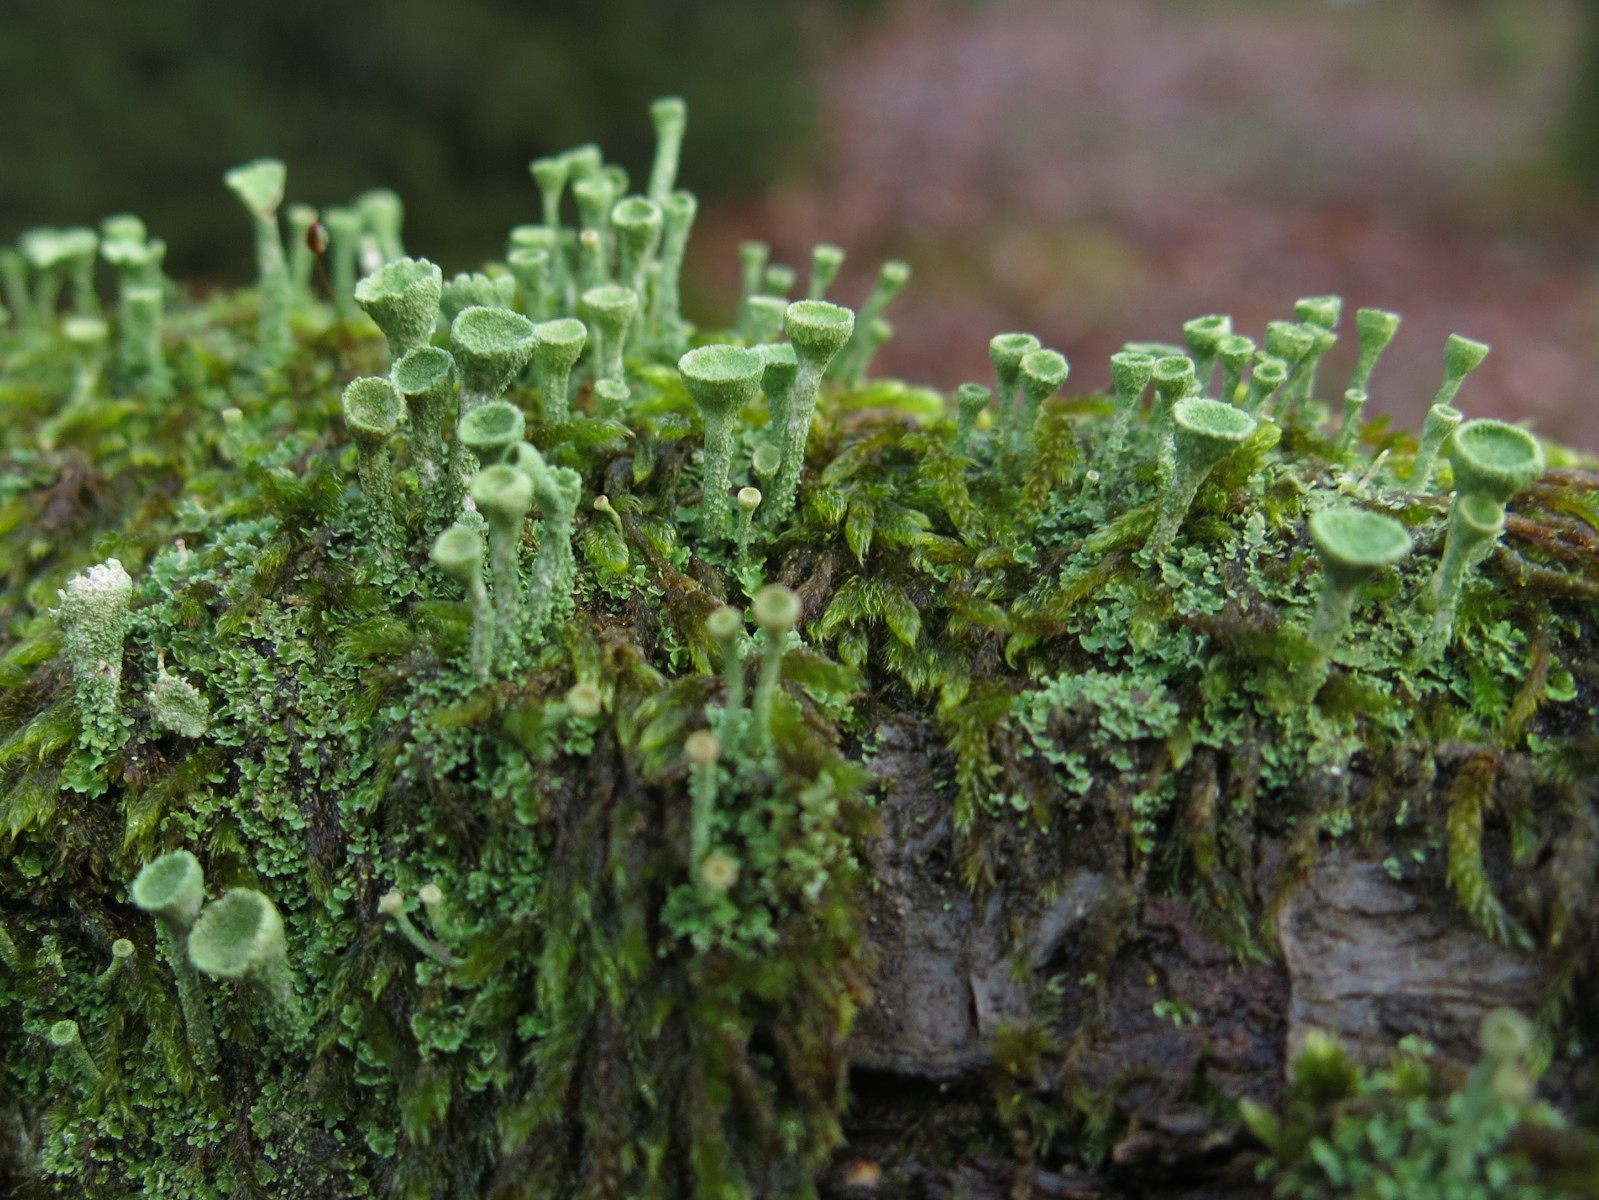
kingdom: Fungi
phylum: Ascomycota
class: Lecanoromycetes
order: Lecanorales
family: Cladoniaceae
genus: Cladonia
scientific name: Cladonia fimbriata
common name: bleggrøn bægerlav
